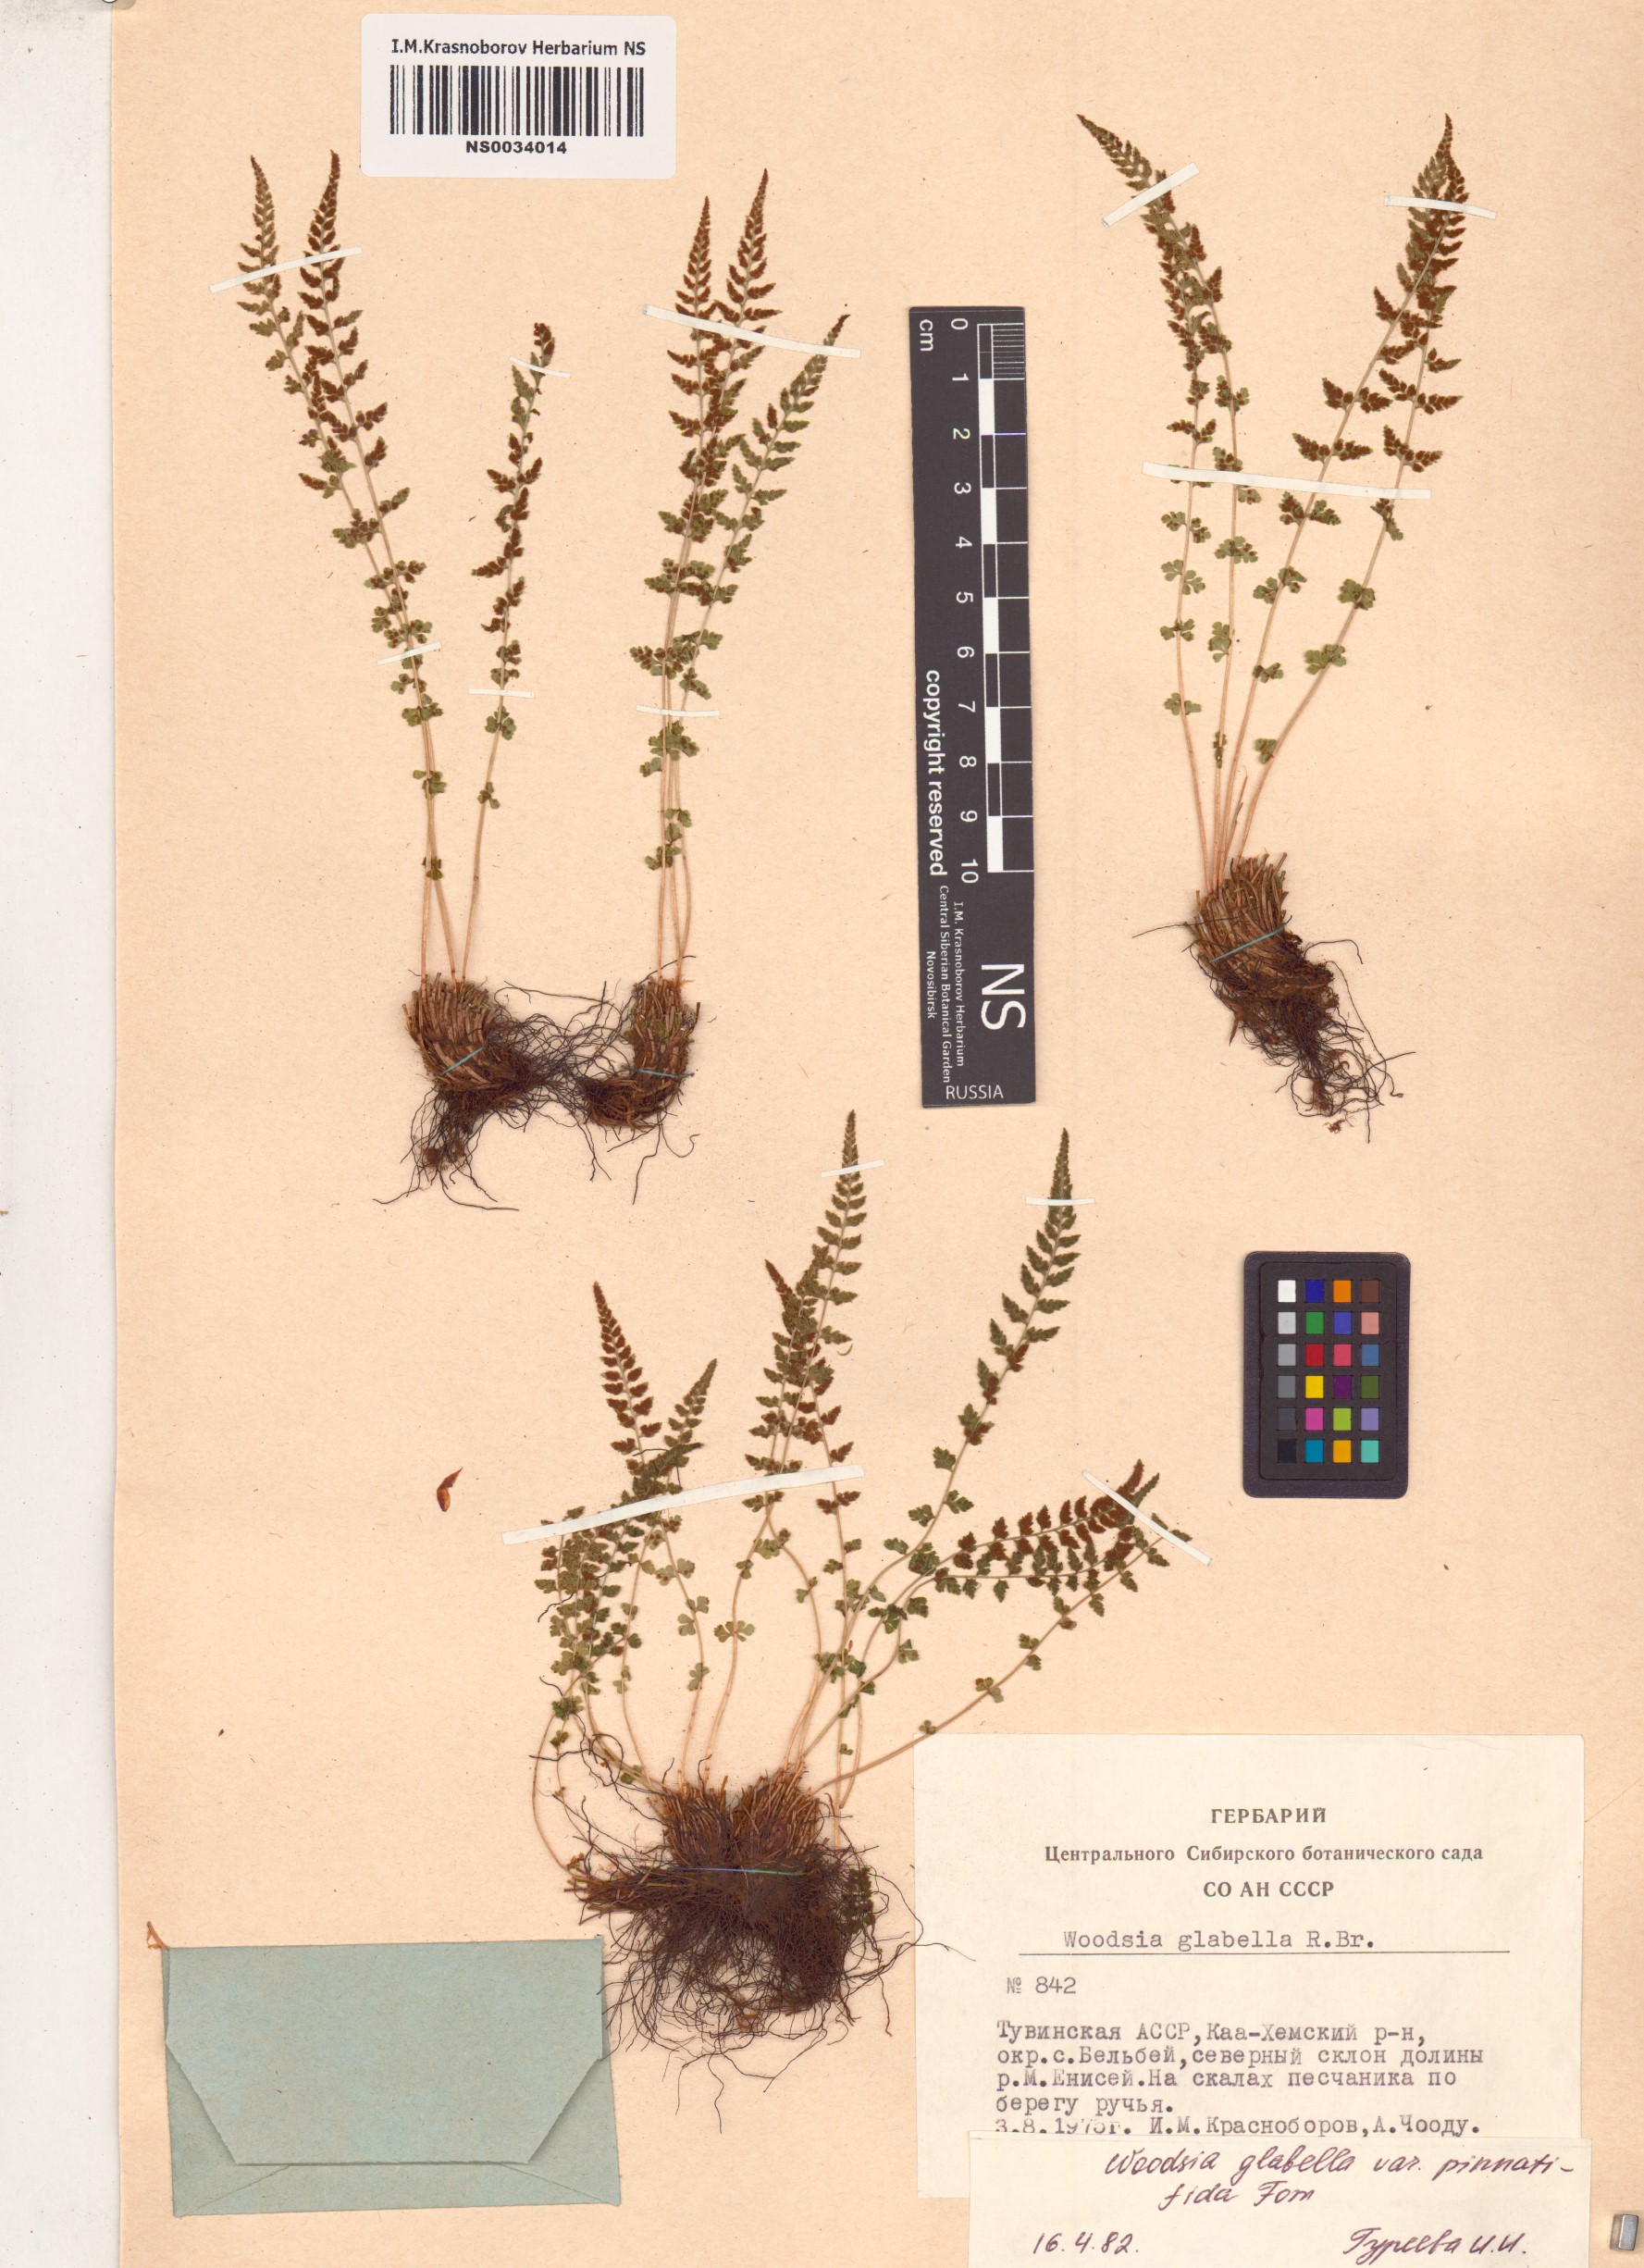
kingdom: Plantae
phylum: Tracheophyta
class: Polypodiopsida
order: Polypodiales
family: Woodsiaceae
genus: Woodsia
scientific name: Woodsia pulchella
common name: Graceful woodsia
